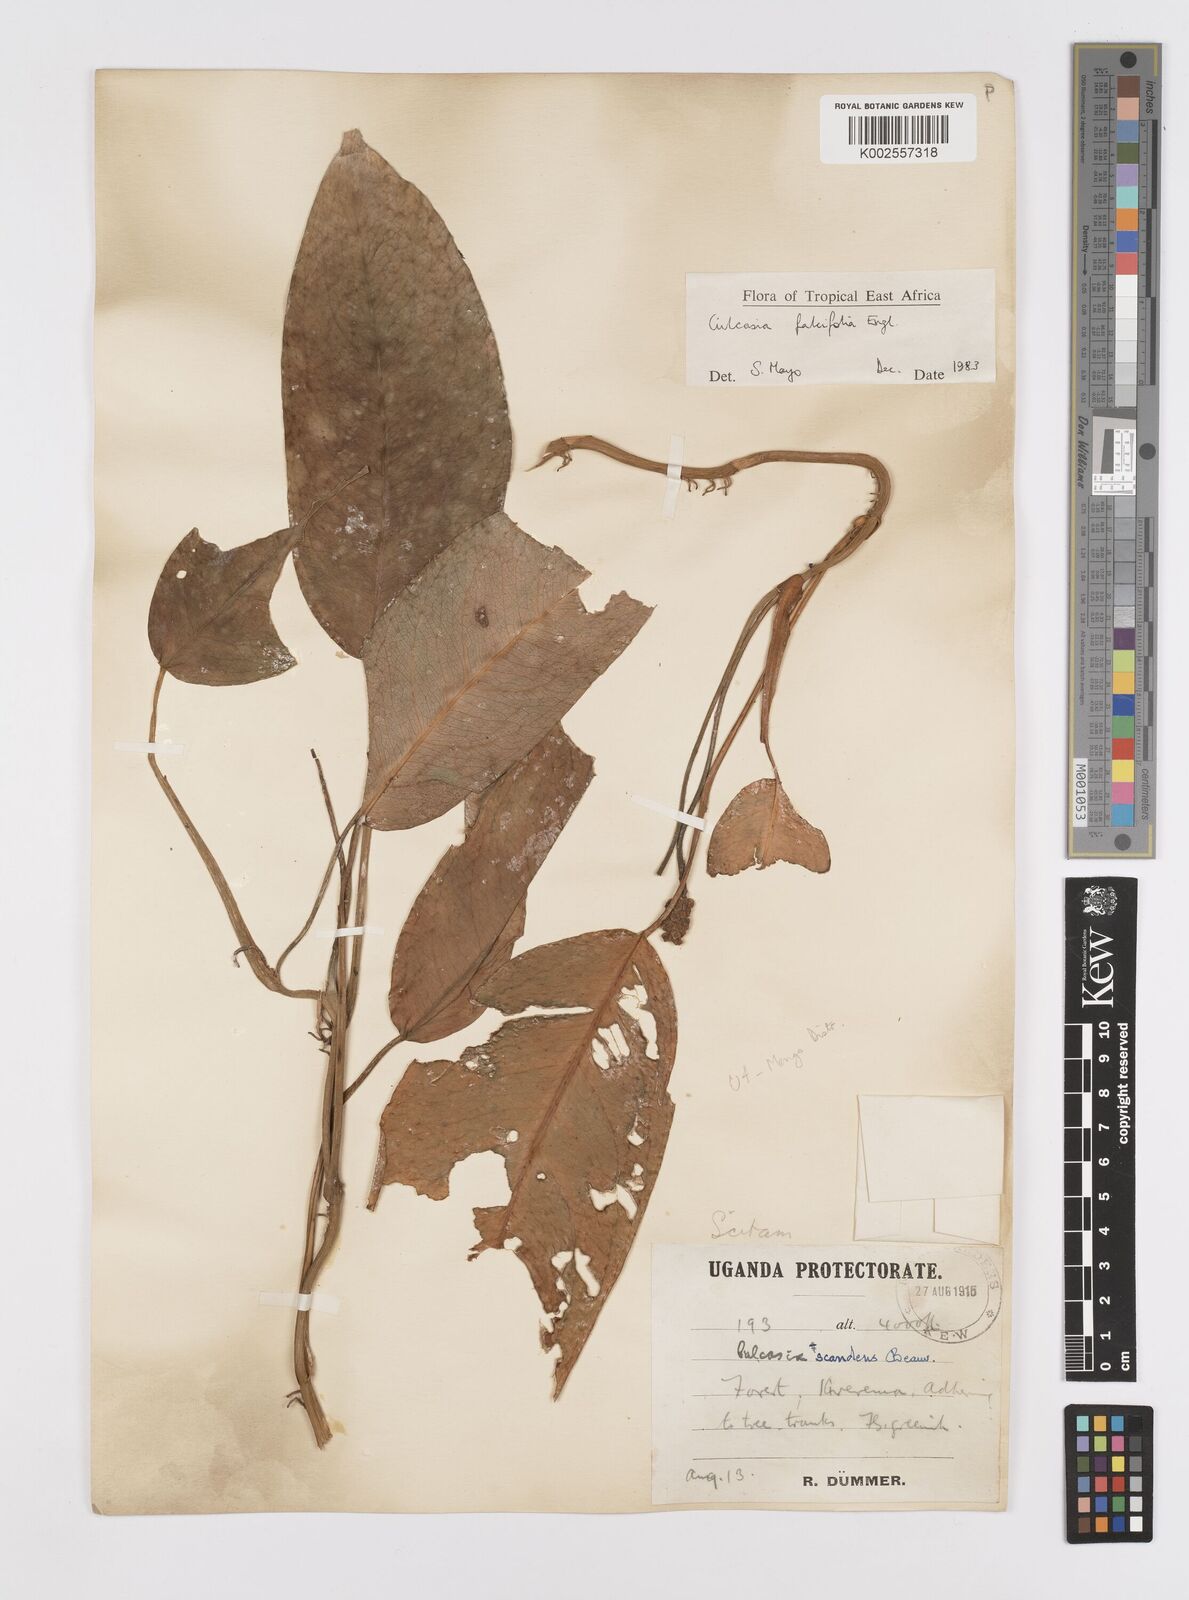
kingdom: Plantae
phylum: Tracheophyta
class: Liliopsida
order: Alismatales
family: Araceae
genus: Culcasia
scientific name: Culcasia falcifolia
